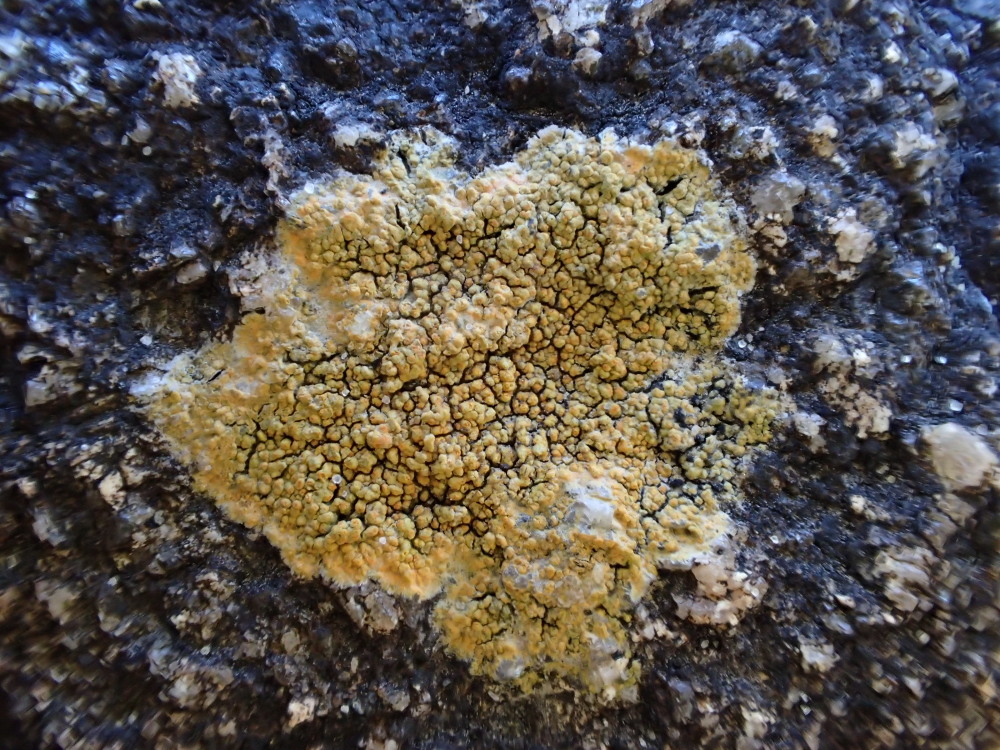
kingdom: Fungi
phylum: Ascomycota
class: Lecanoromycetes
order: Teloschistales
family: Teloschistaceae
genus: Flavoplaca
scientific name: Flavoplaca marina
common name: strand-orangelav
